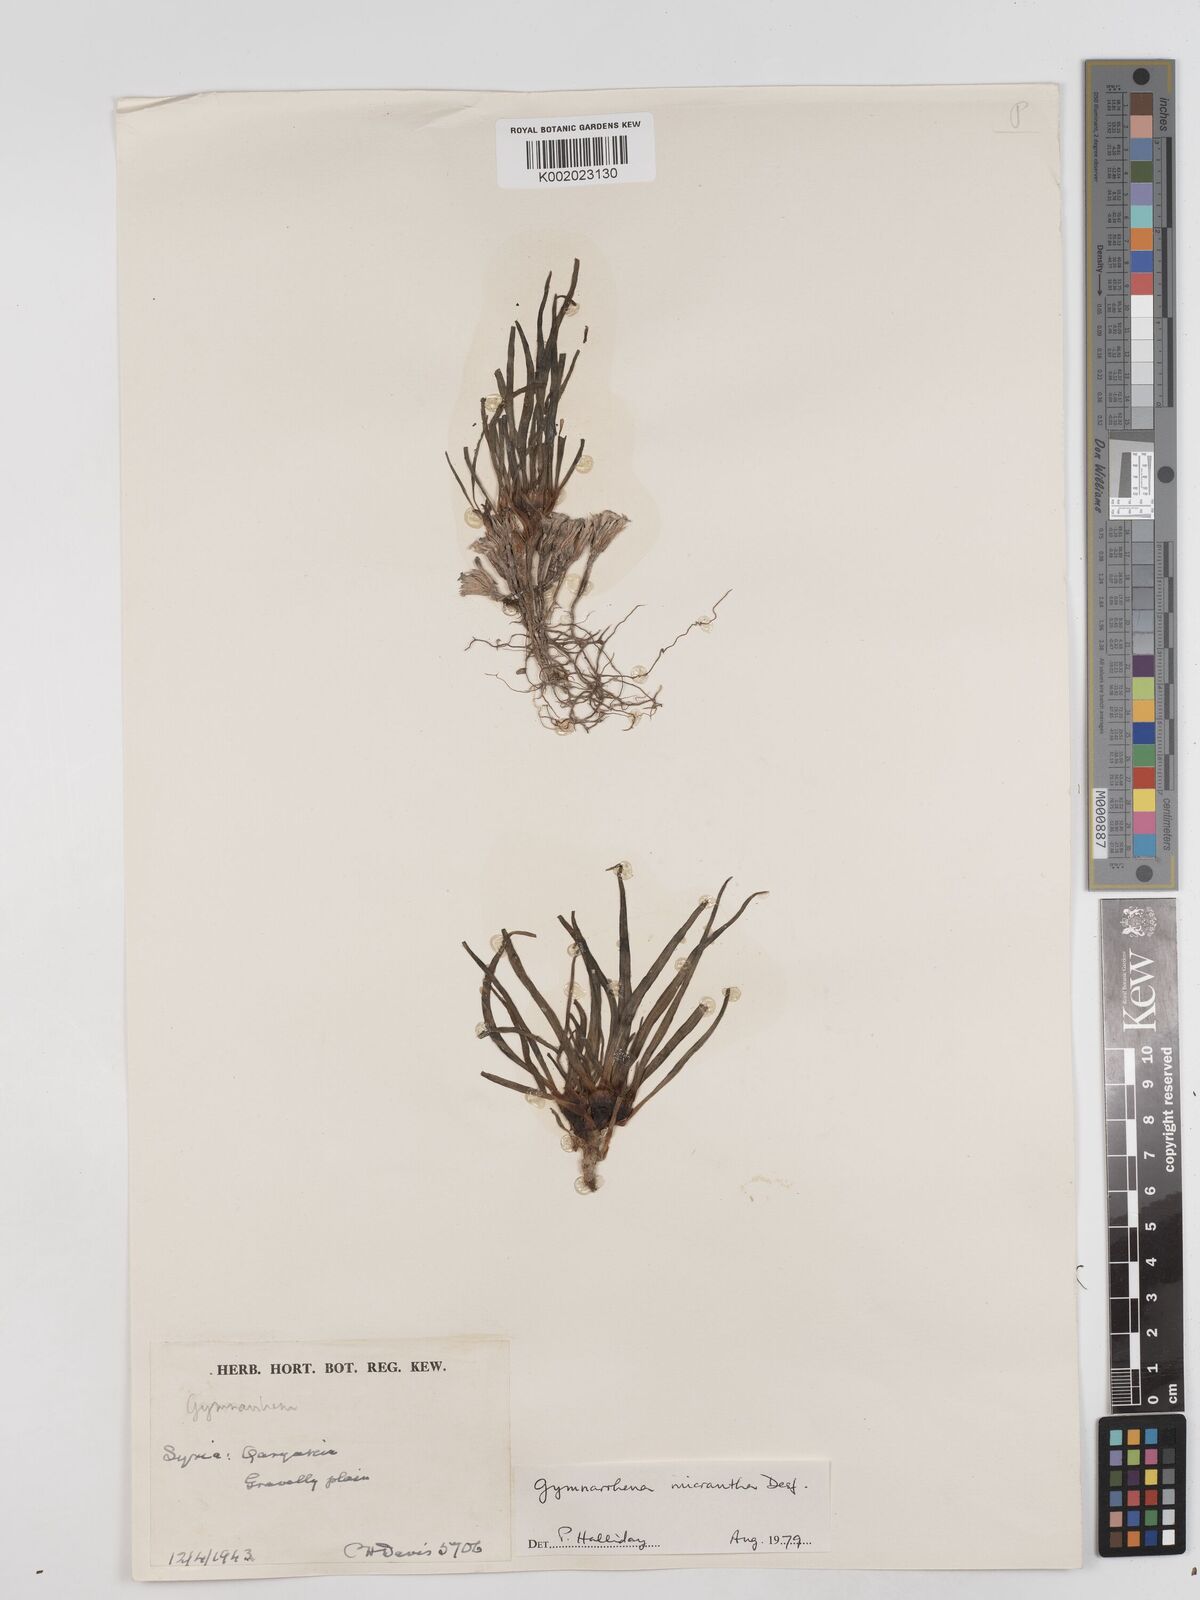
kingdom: Plantae
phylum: Tracheophyta
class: Magnoliopsida
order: Asterales
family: Asteraceae
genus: Gymnarrhena
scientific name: Gymnarrhena micrantha
